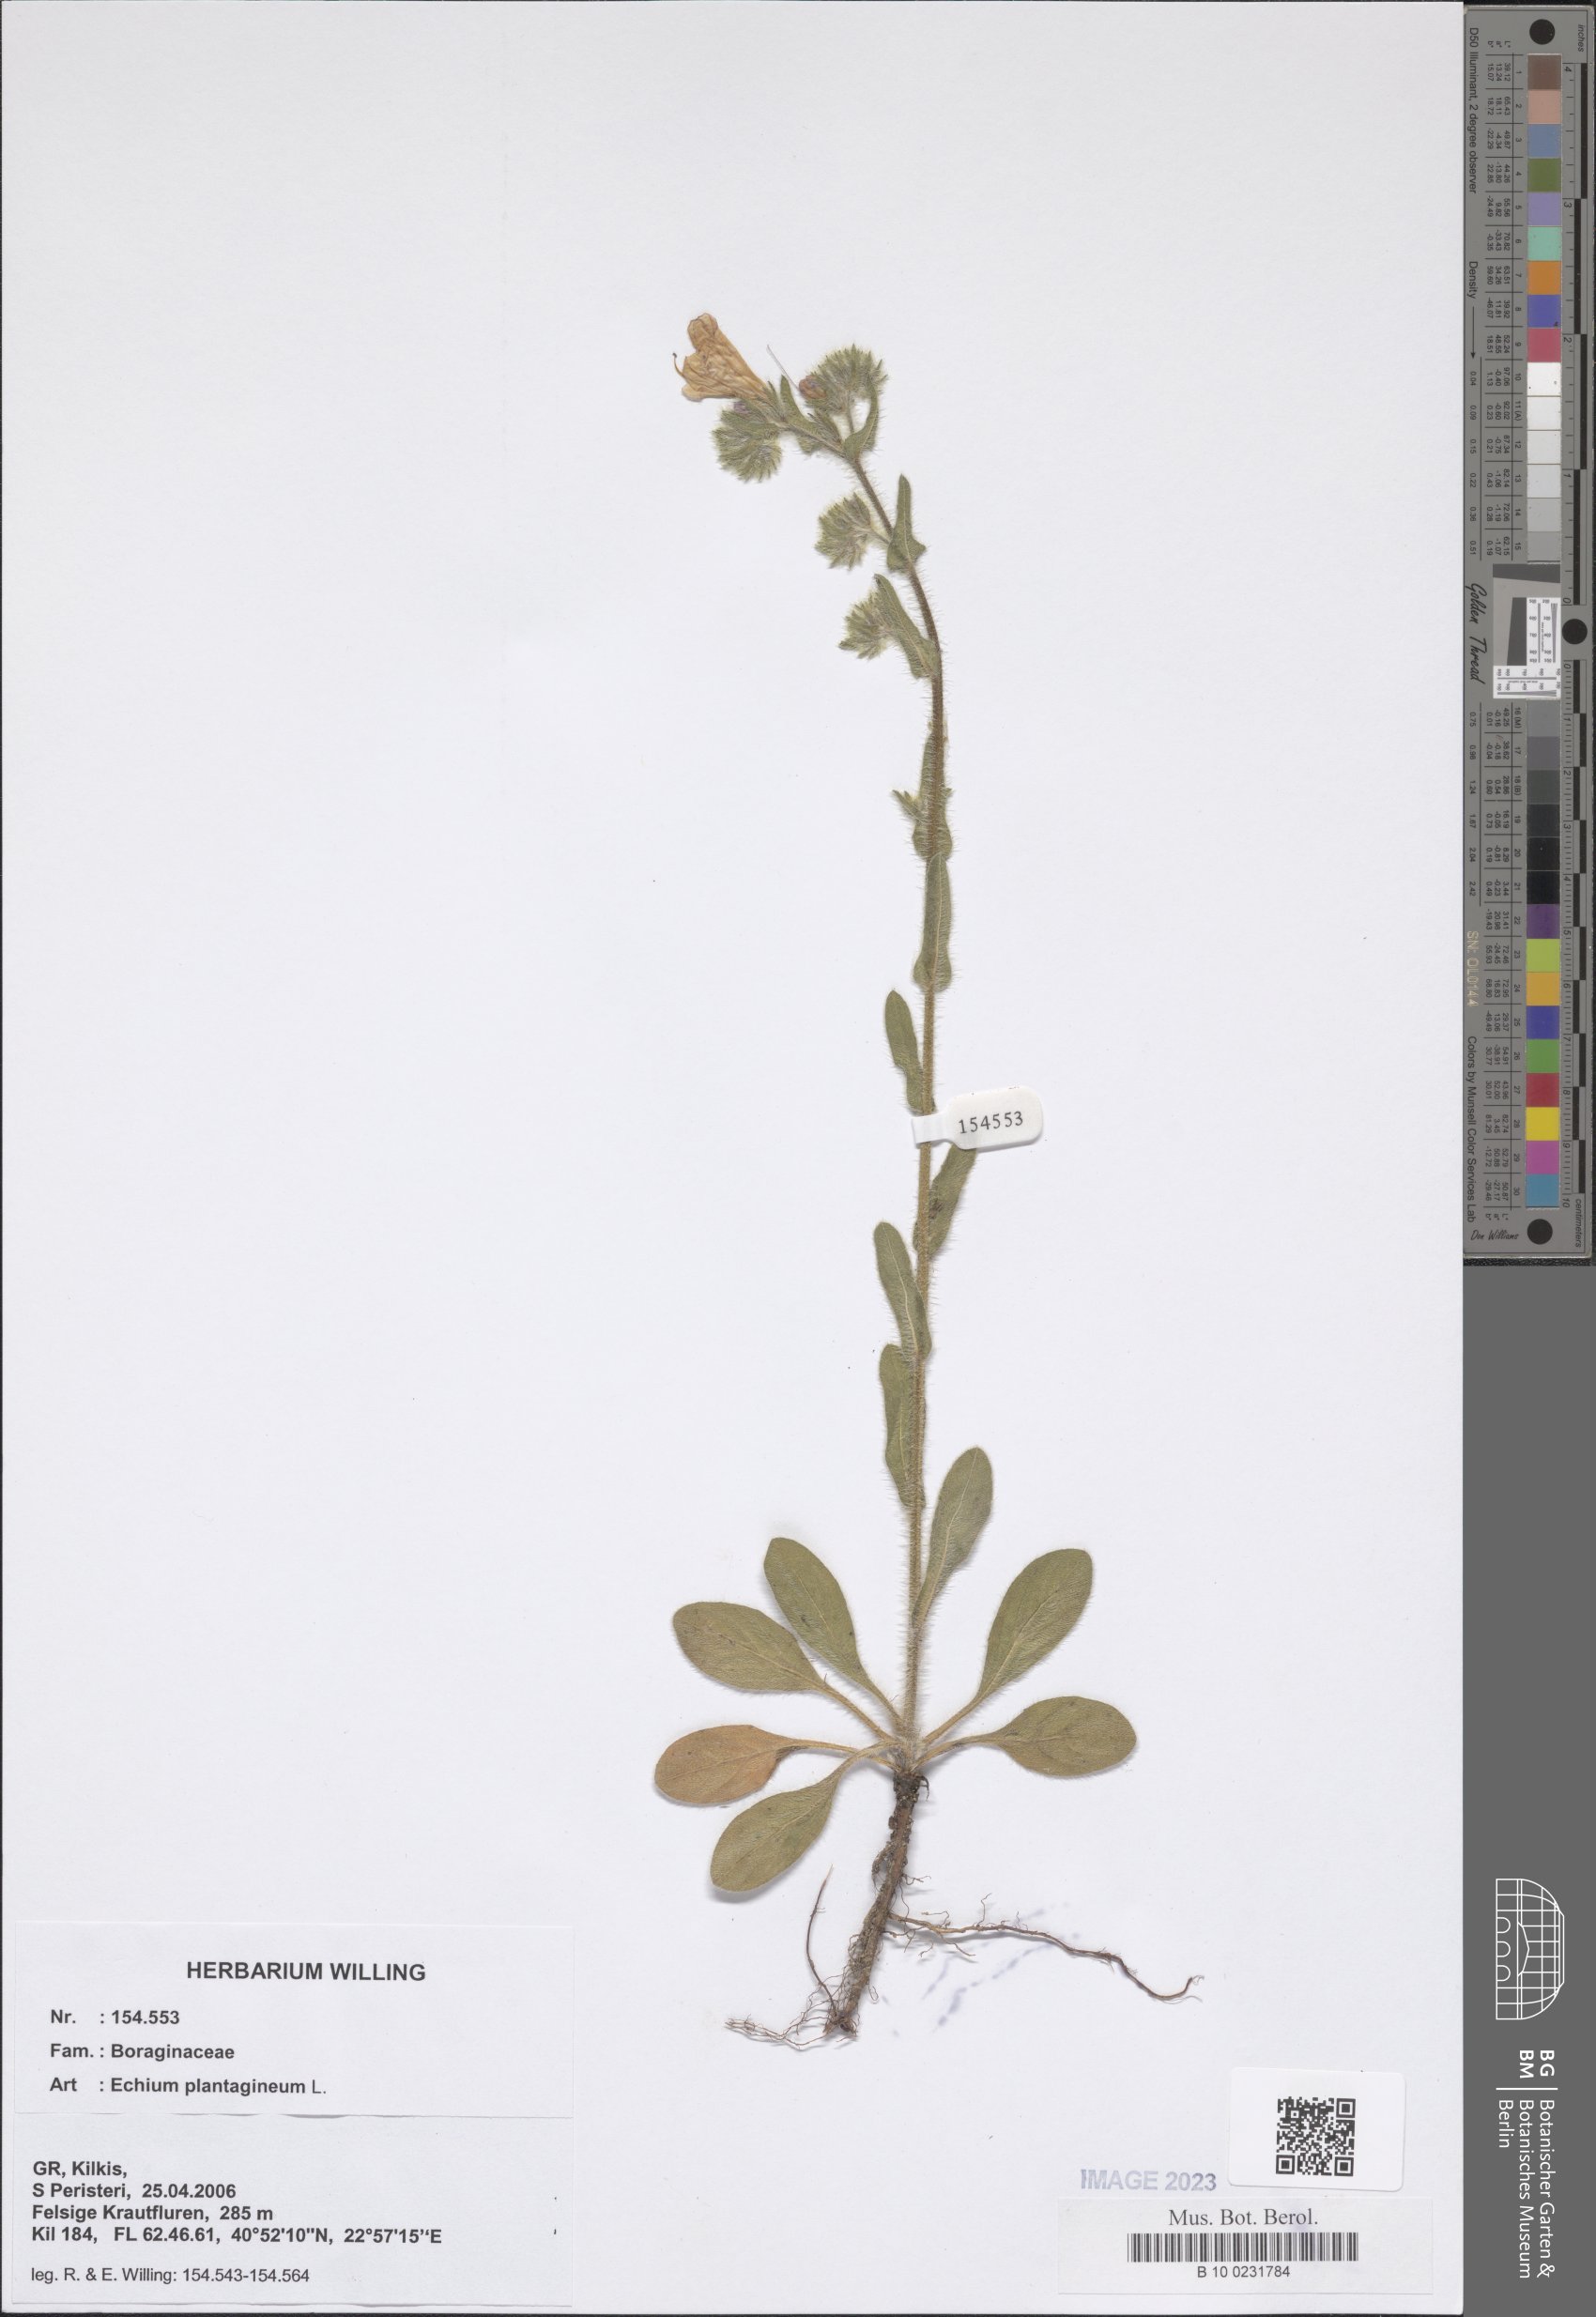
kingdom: Plantae
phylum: Tracheophyta
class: Magnoliopsida
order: Boraginales
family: Boraginaceae
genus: Echium
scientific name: Echium plantagineum
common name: Purple viper's-bugloss
